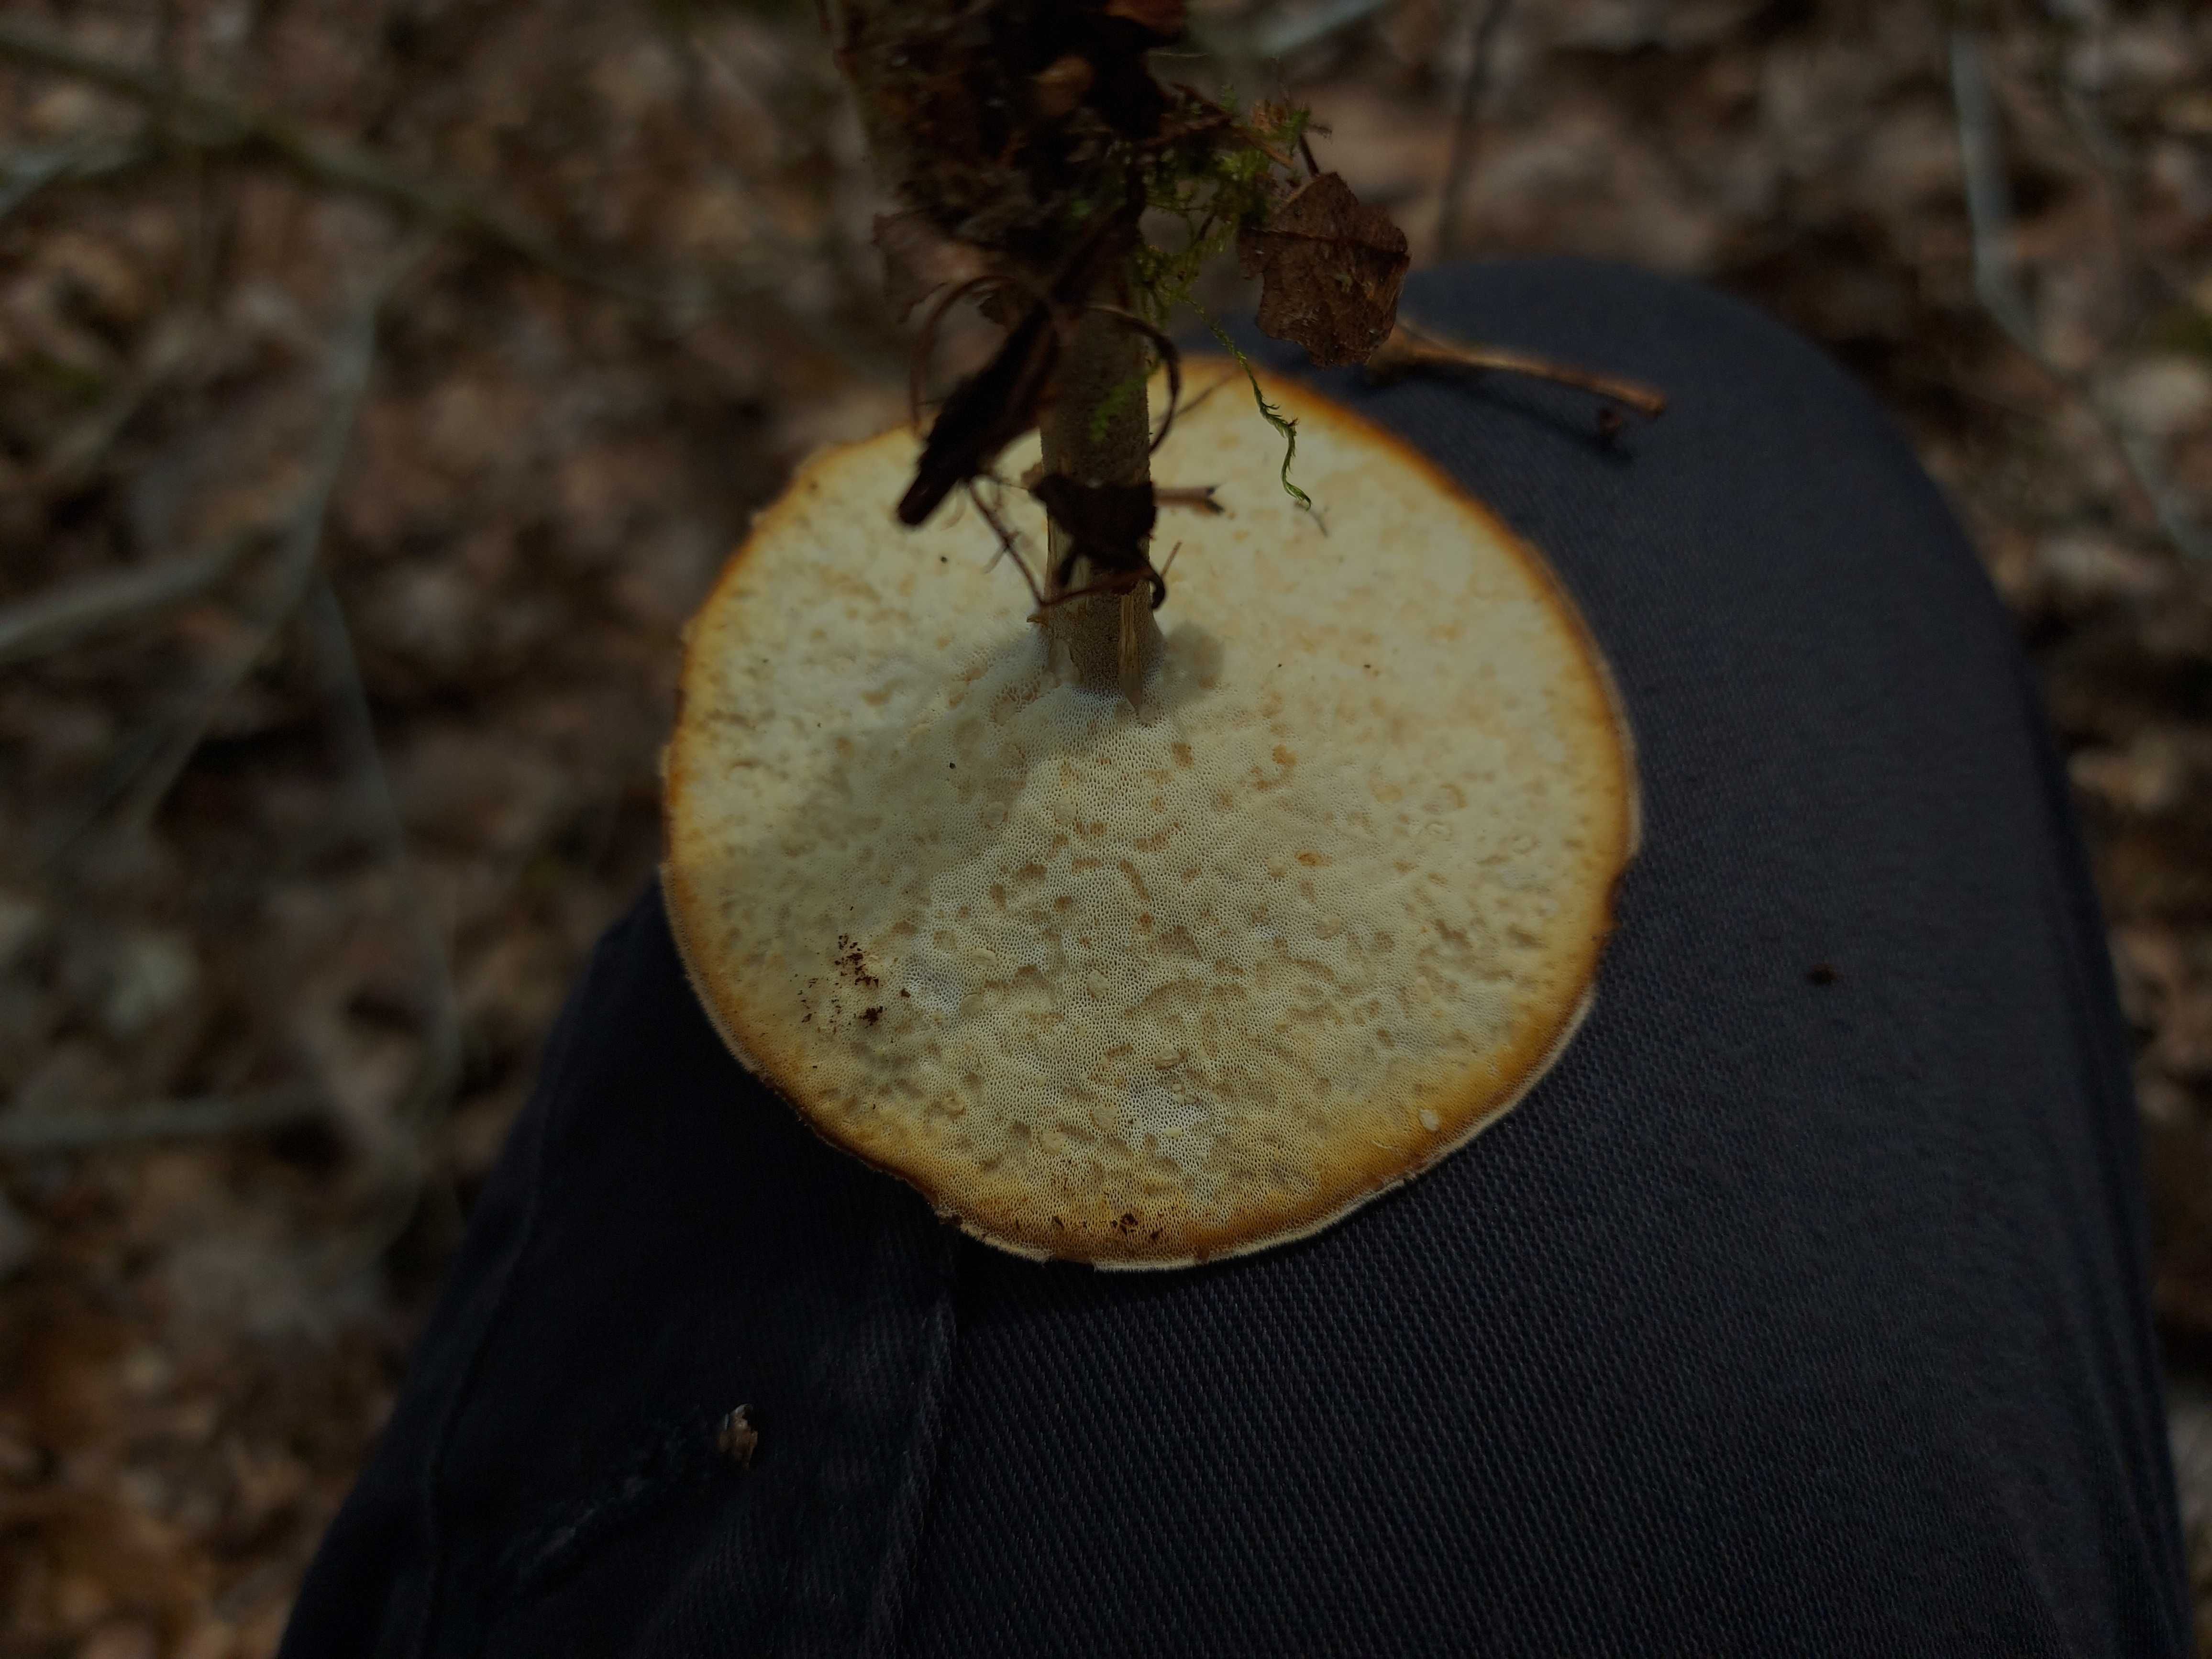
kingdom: Fungi
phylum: Basidiomycota
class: Agaricomycetes
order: Polyporales
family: Polyporaceae
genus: Lentinus
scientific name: Lentinus substrictus
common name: forårs-stilkporesvamp
